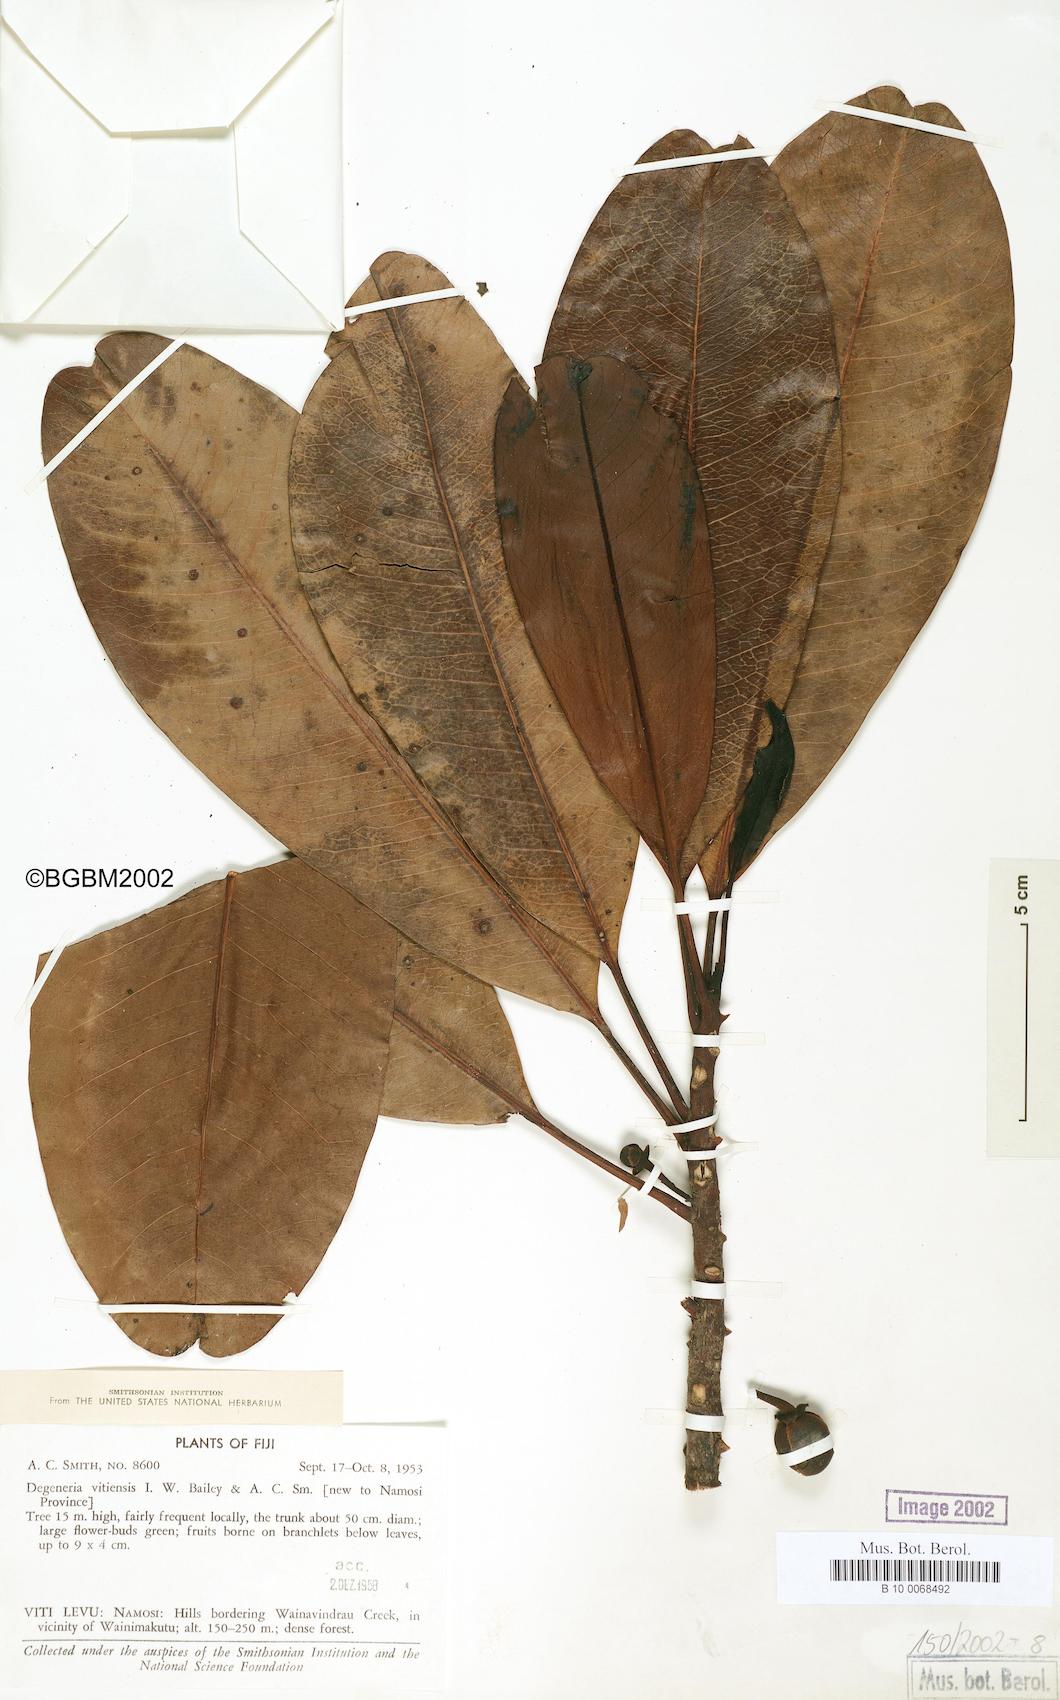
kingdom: Plantae
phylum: Tracheophyta
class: Magnoliopsida
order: Magnoliales
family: Degeneriaceae
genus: Degeneria
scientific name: Degeneria vitiensis
